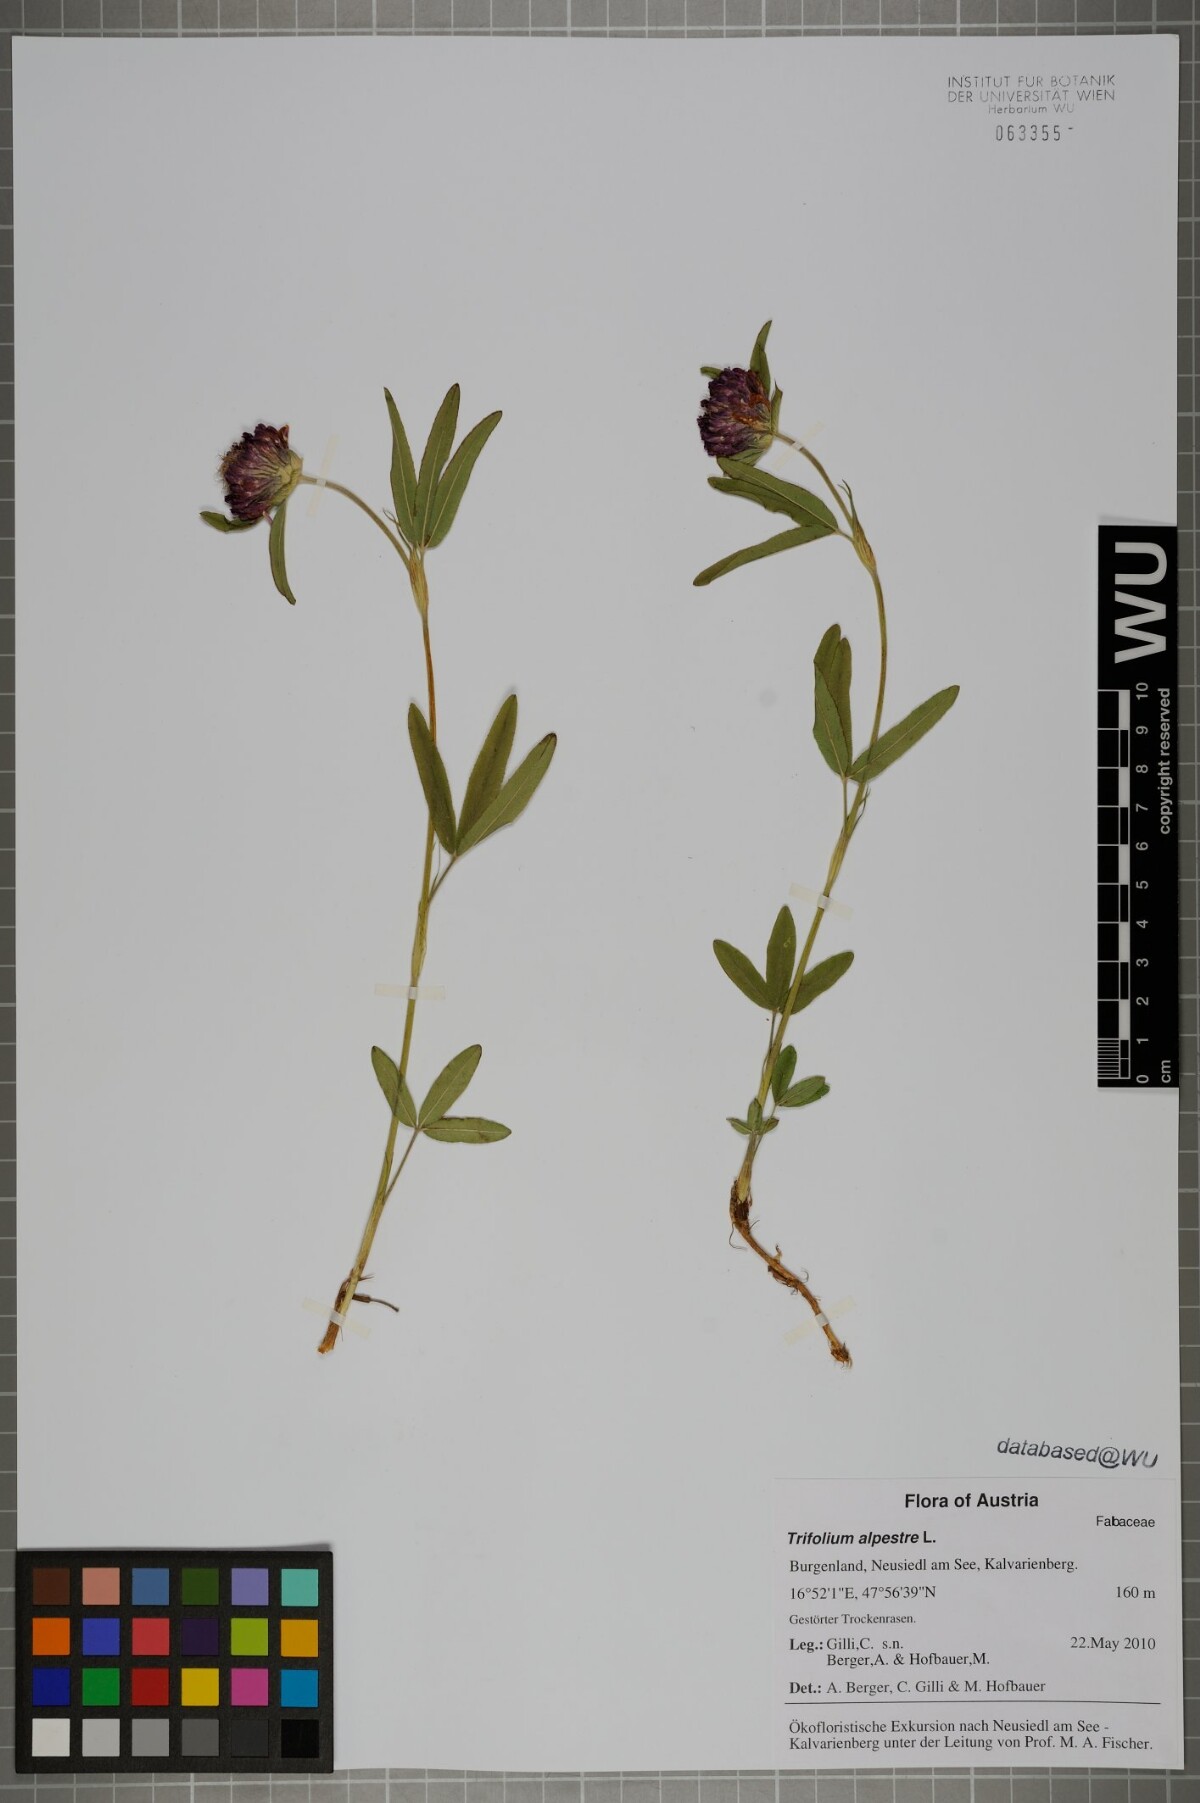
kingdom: Plantae
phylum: Tracheophyta
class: Magnoliopsida
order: Fabales
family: Fabaceae
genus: Trifolium
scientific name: Trifolium alpestre
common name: Owl-head clover
